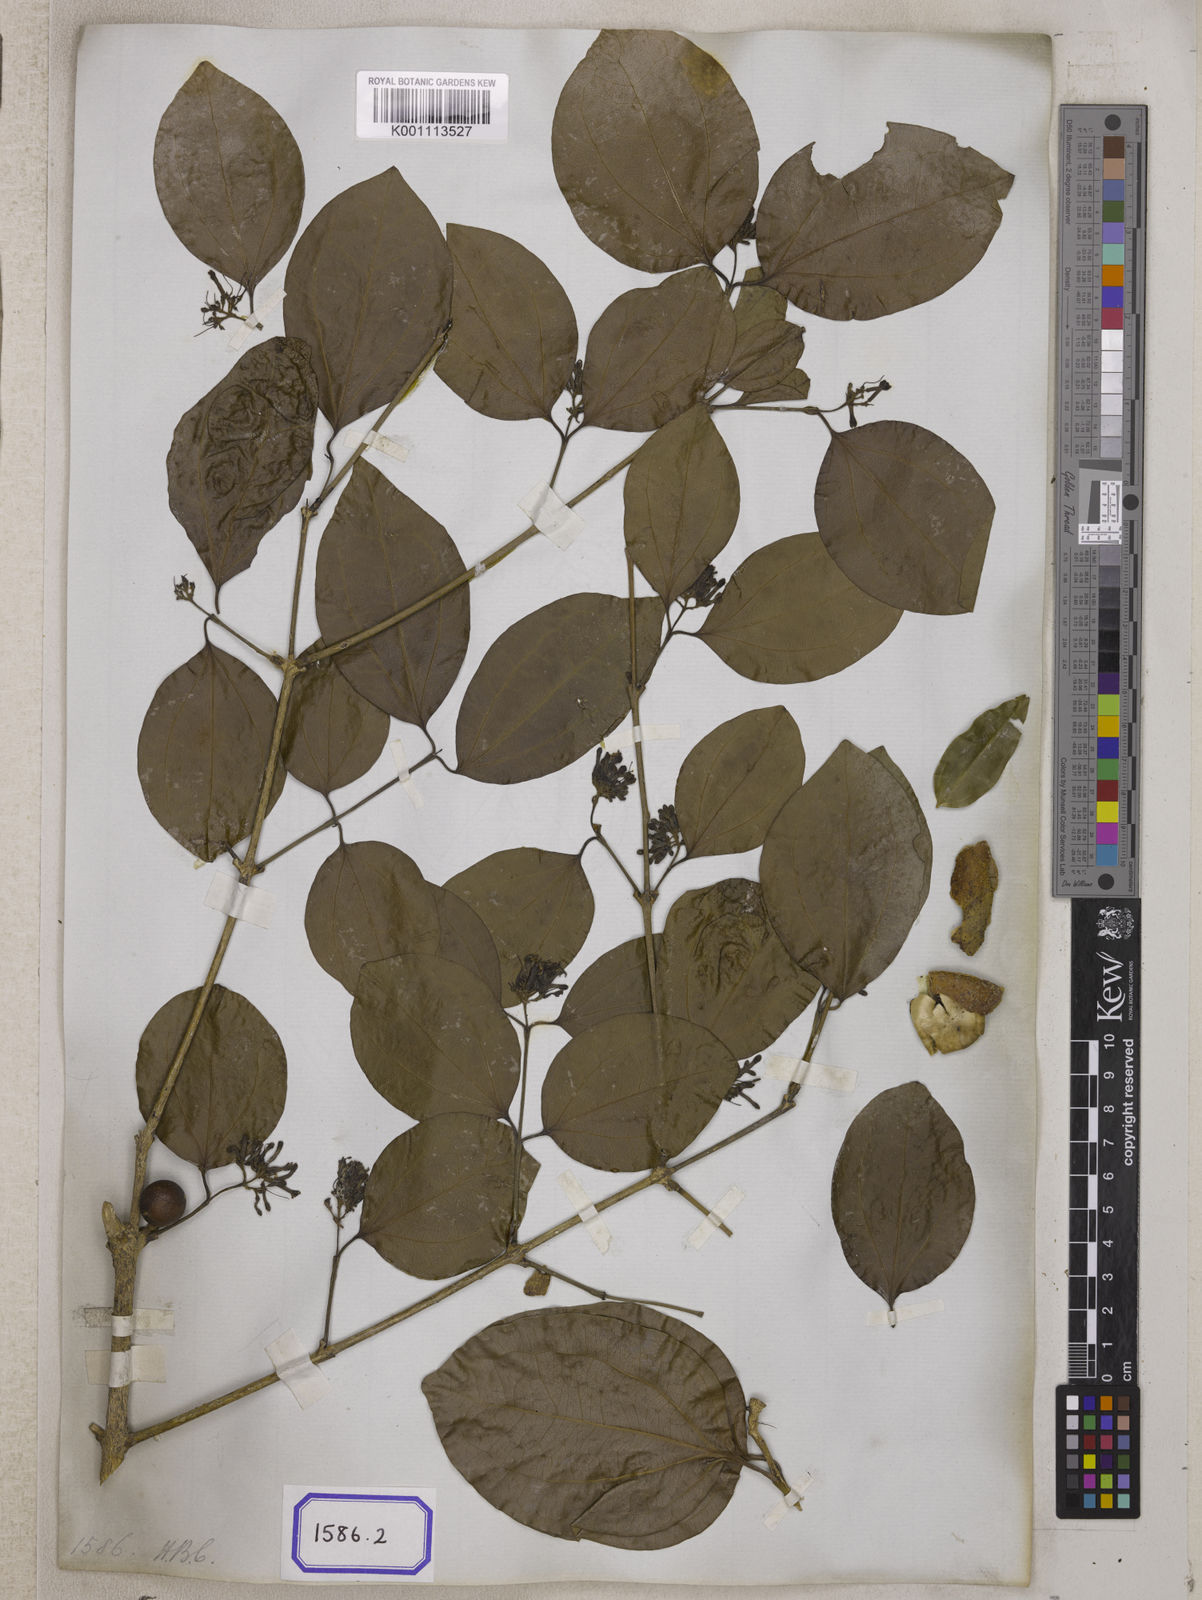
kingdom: Plantae
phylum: Tracheophyta
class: Magnoliopsida
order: Gentianales
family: Loganiaceae
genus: Strychnos
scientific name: Strychnos nux-vomica
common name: Strychninetree
